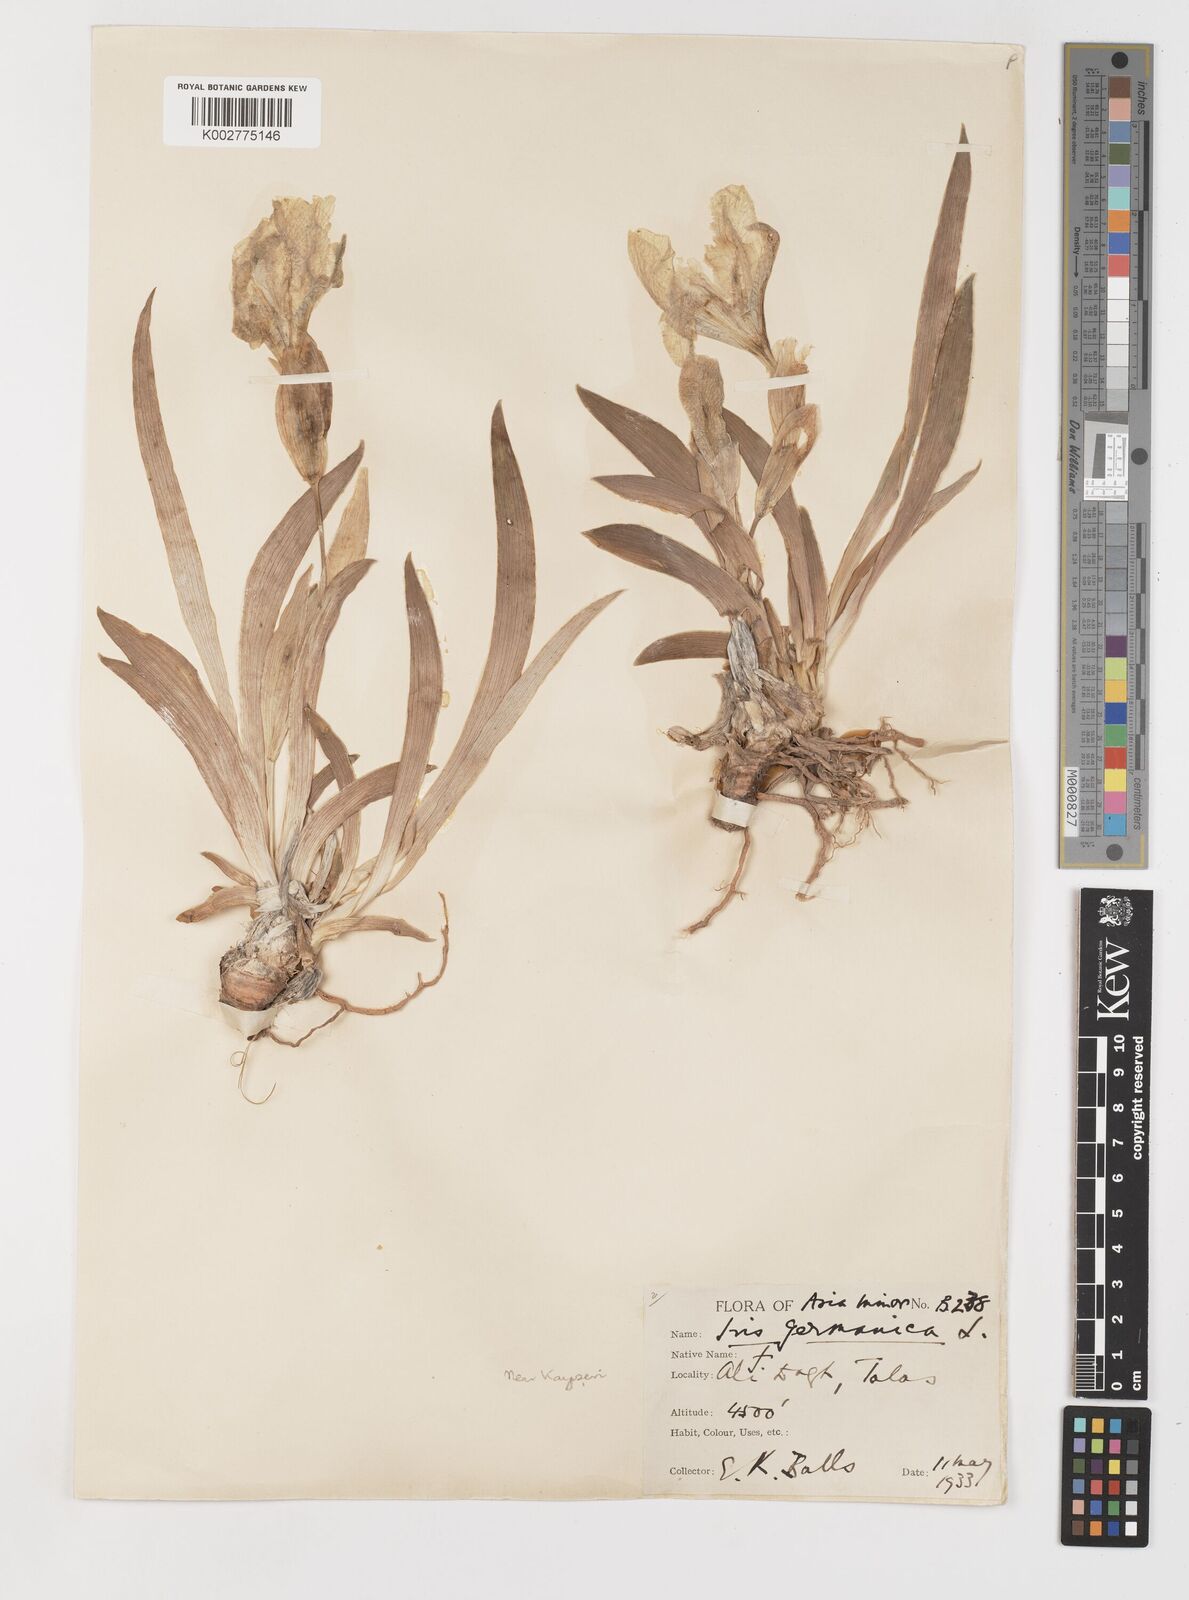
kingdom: Plantae
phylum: Tracheophyta
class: Liliopsida
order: Asparagales
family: Iridaceae
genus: Iris
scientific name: Iris schachtii
